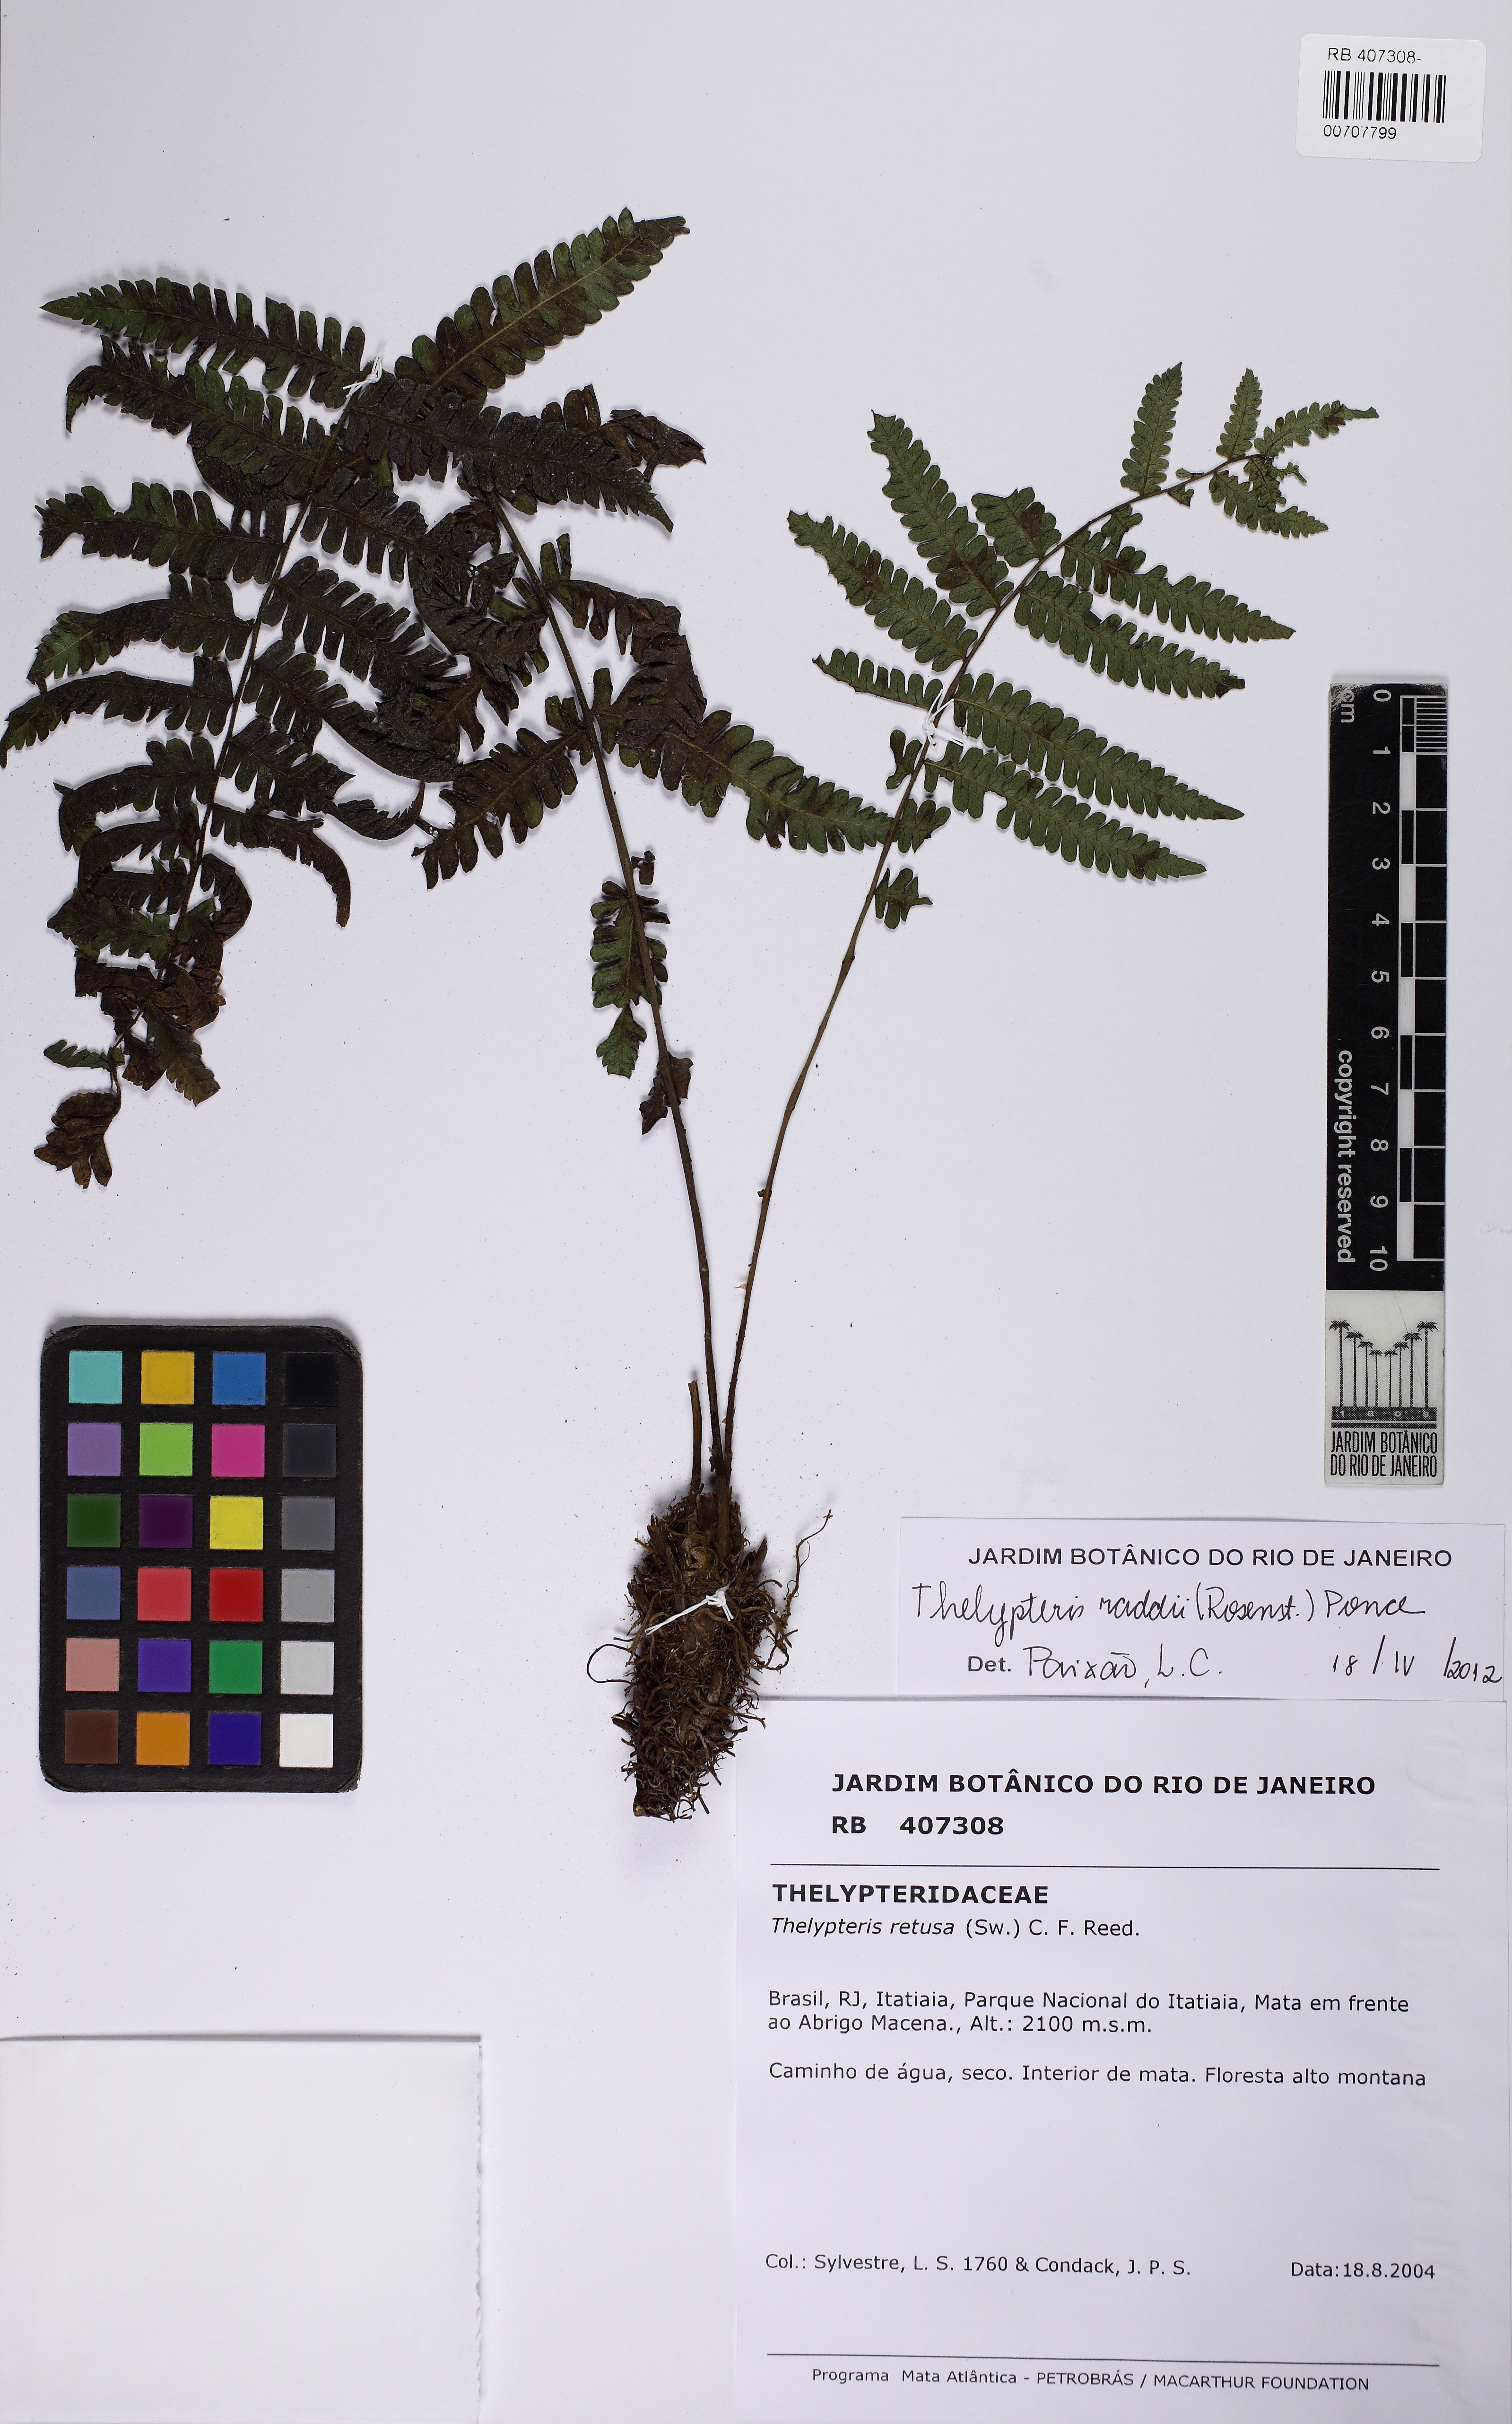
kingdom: Plantae
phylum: Tracheophyta
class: Polypodiopsida
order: Polypodiales
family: Thelypteridaceae
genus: Amauropelta
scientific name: Amauropelta retusa
